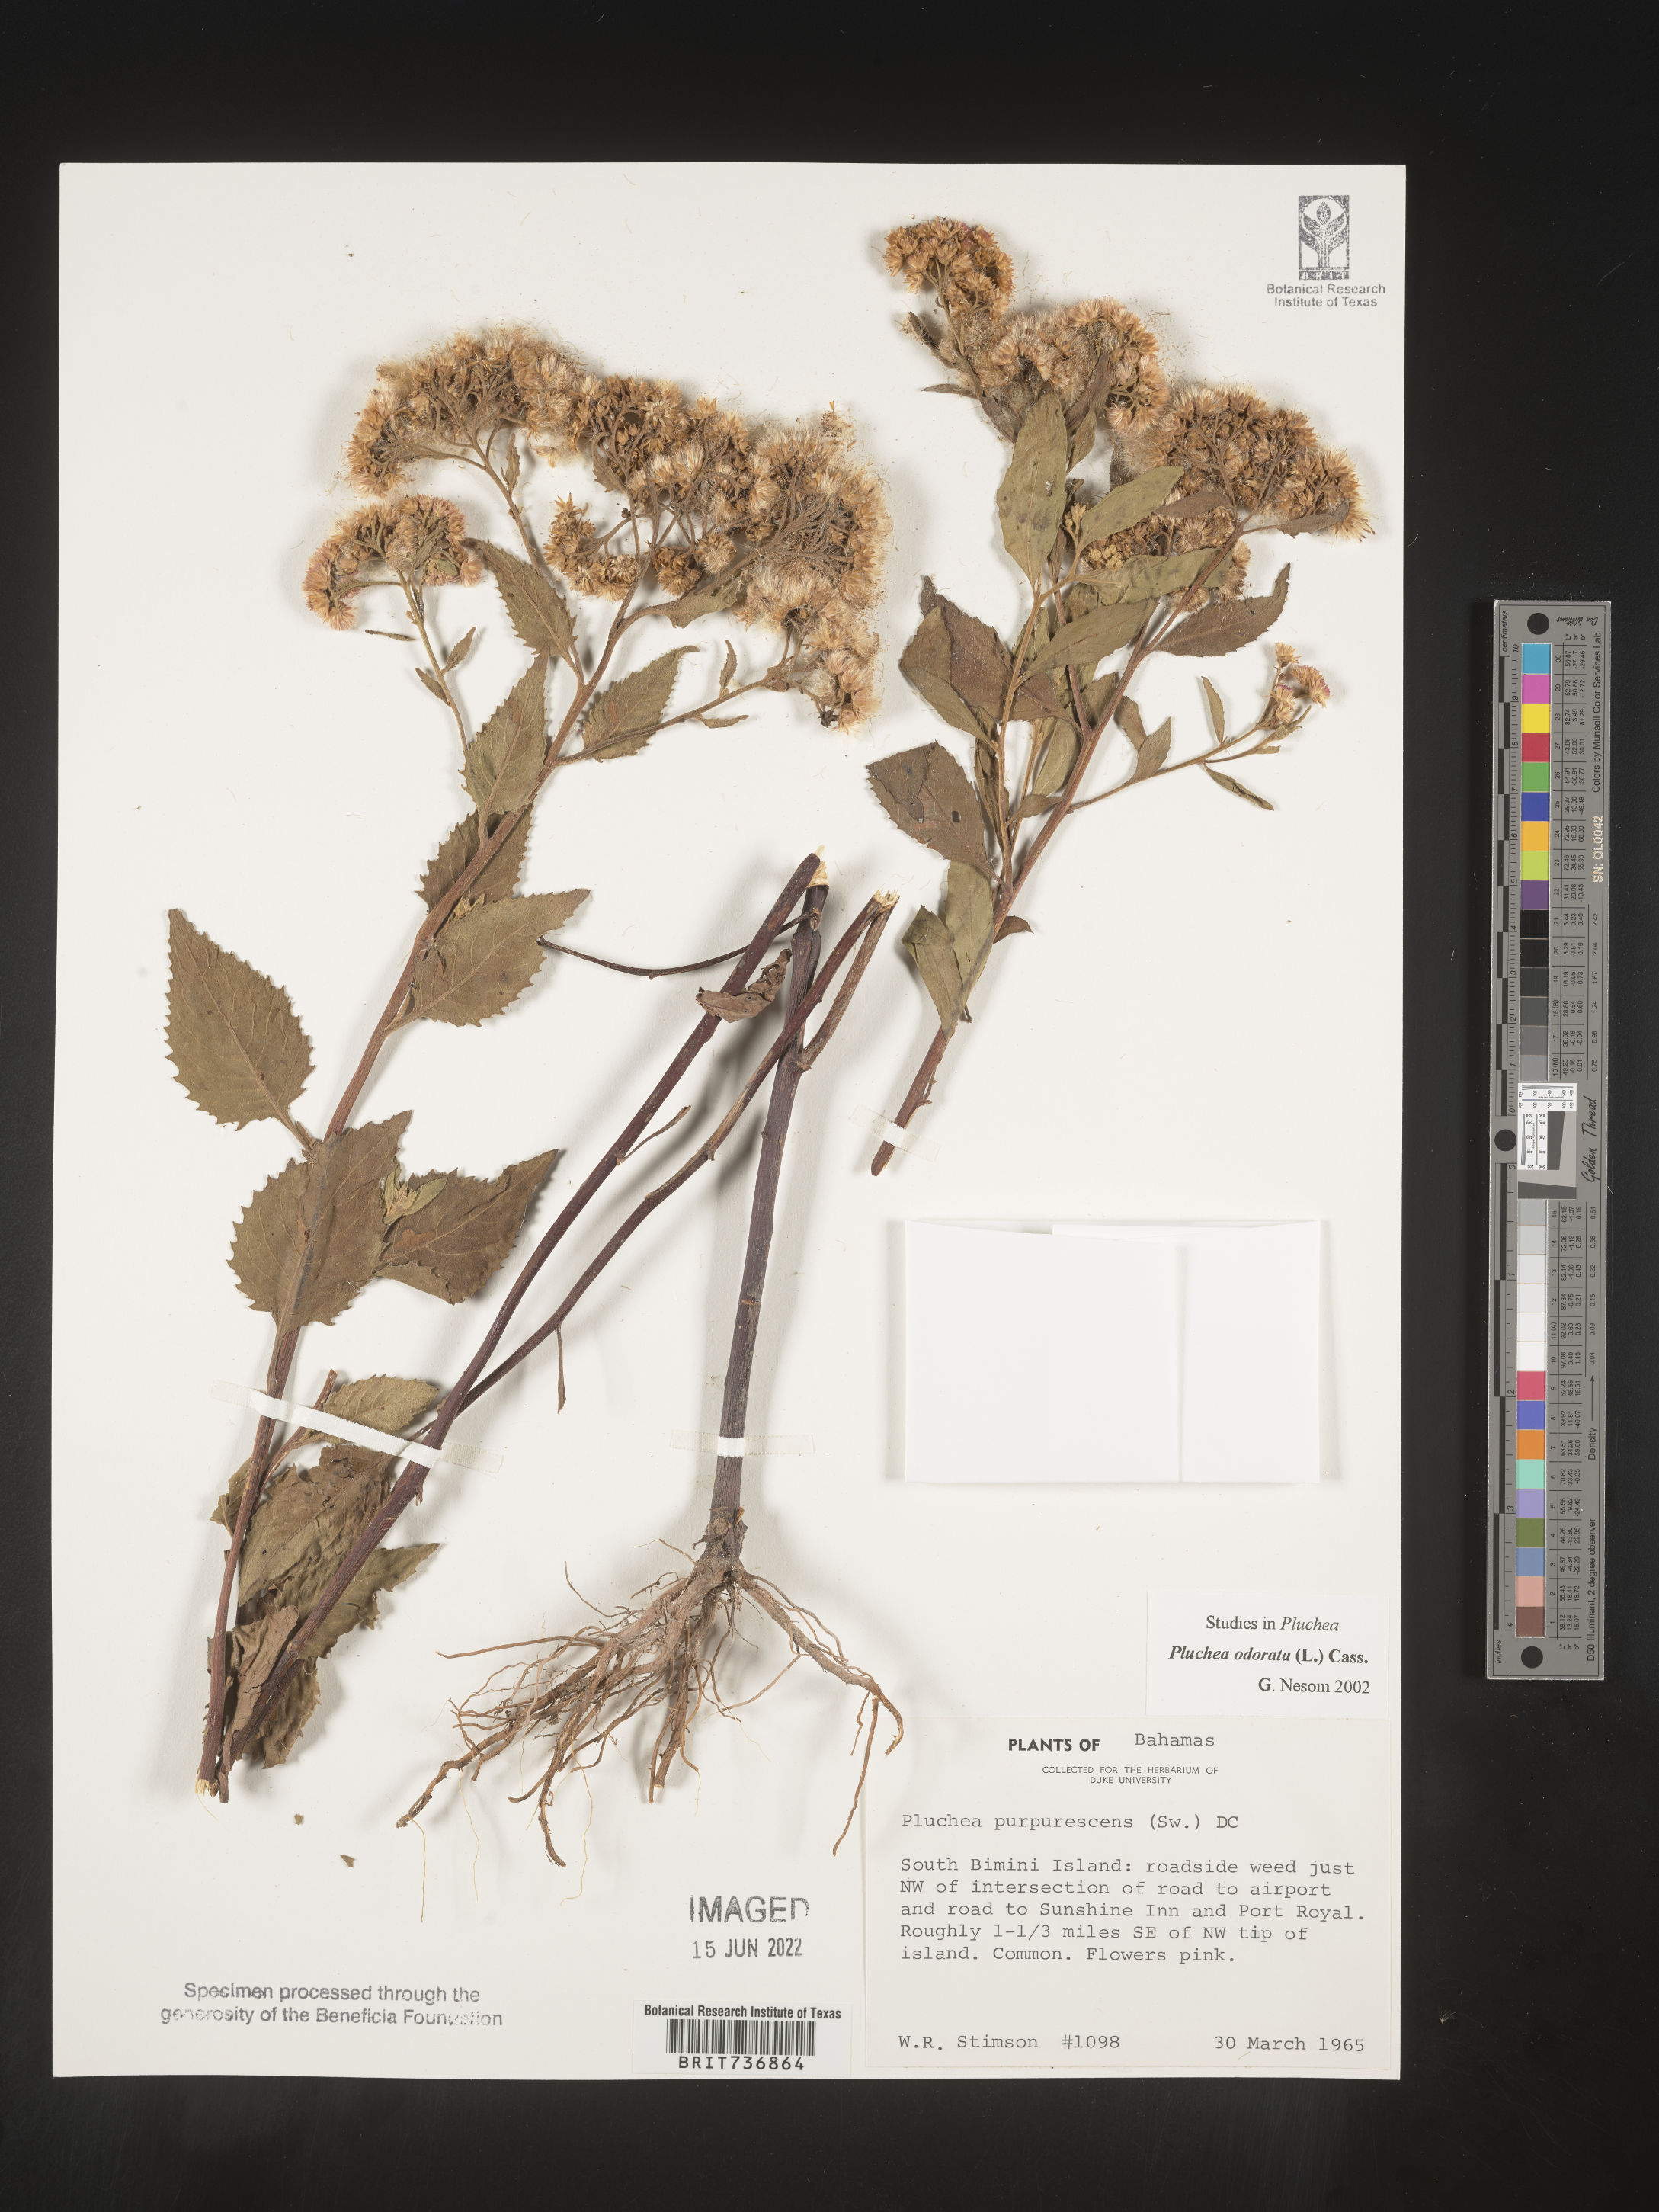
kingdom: Plantae
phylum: Tracheophyta
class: Magnoliopsida
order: Asterales
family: Asteraceae
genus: Pluchea
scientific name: Pluchea
